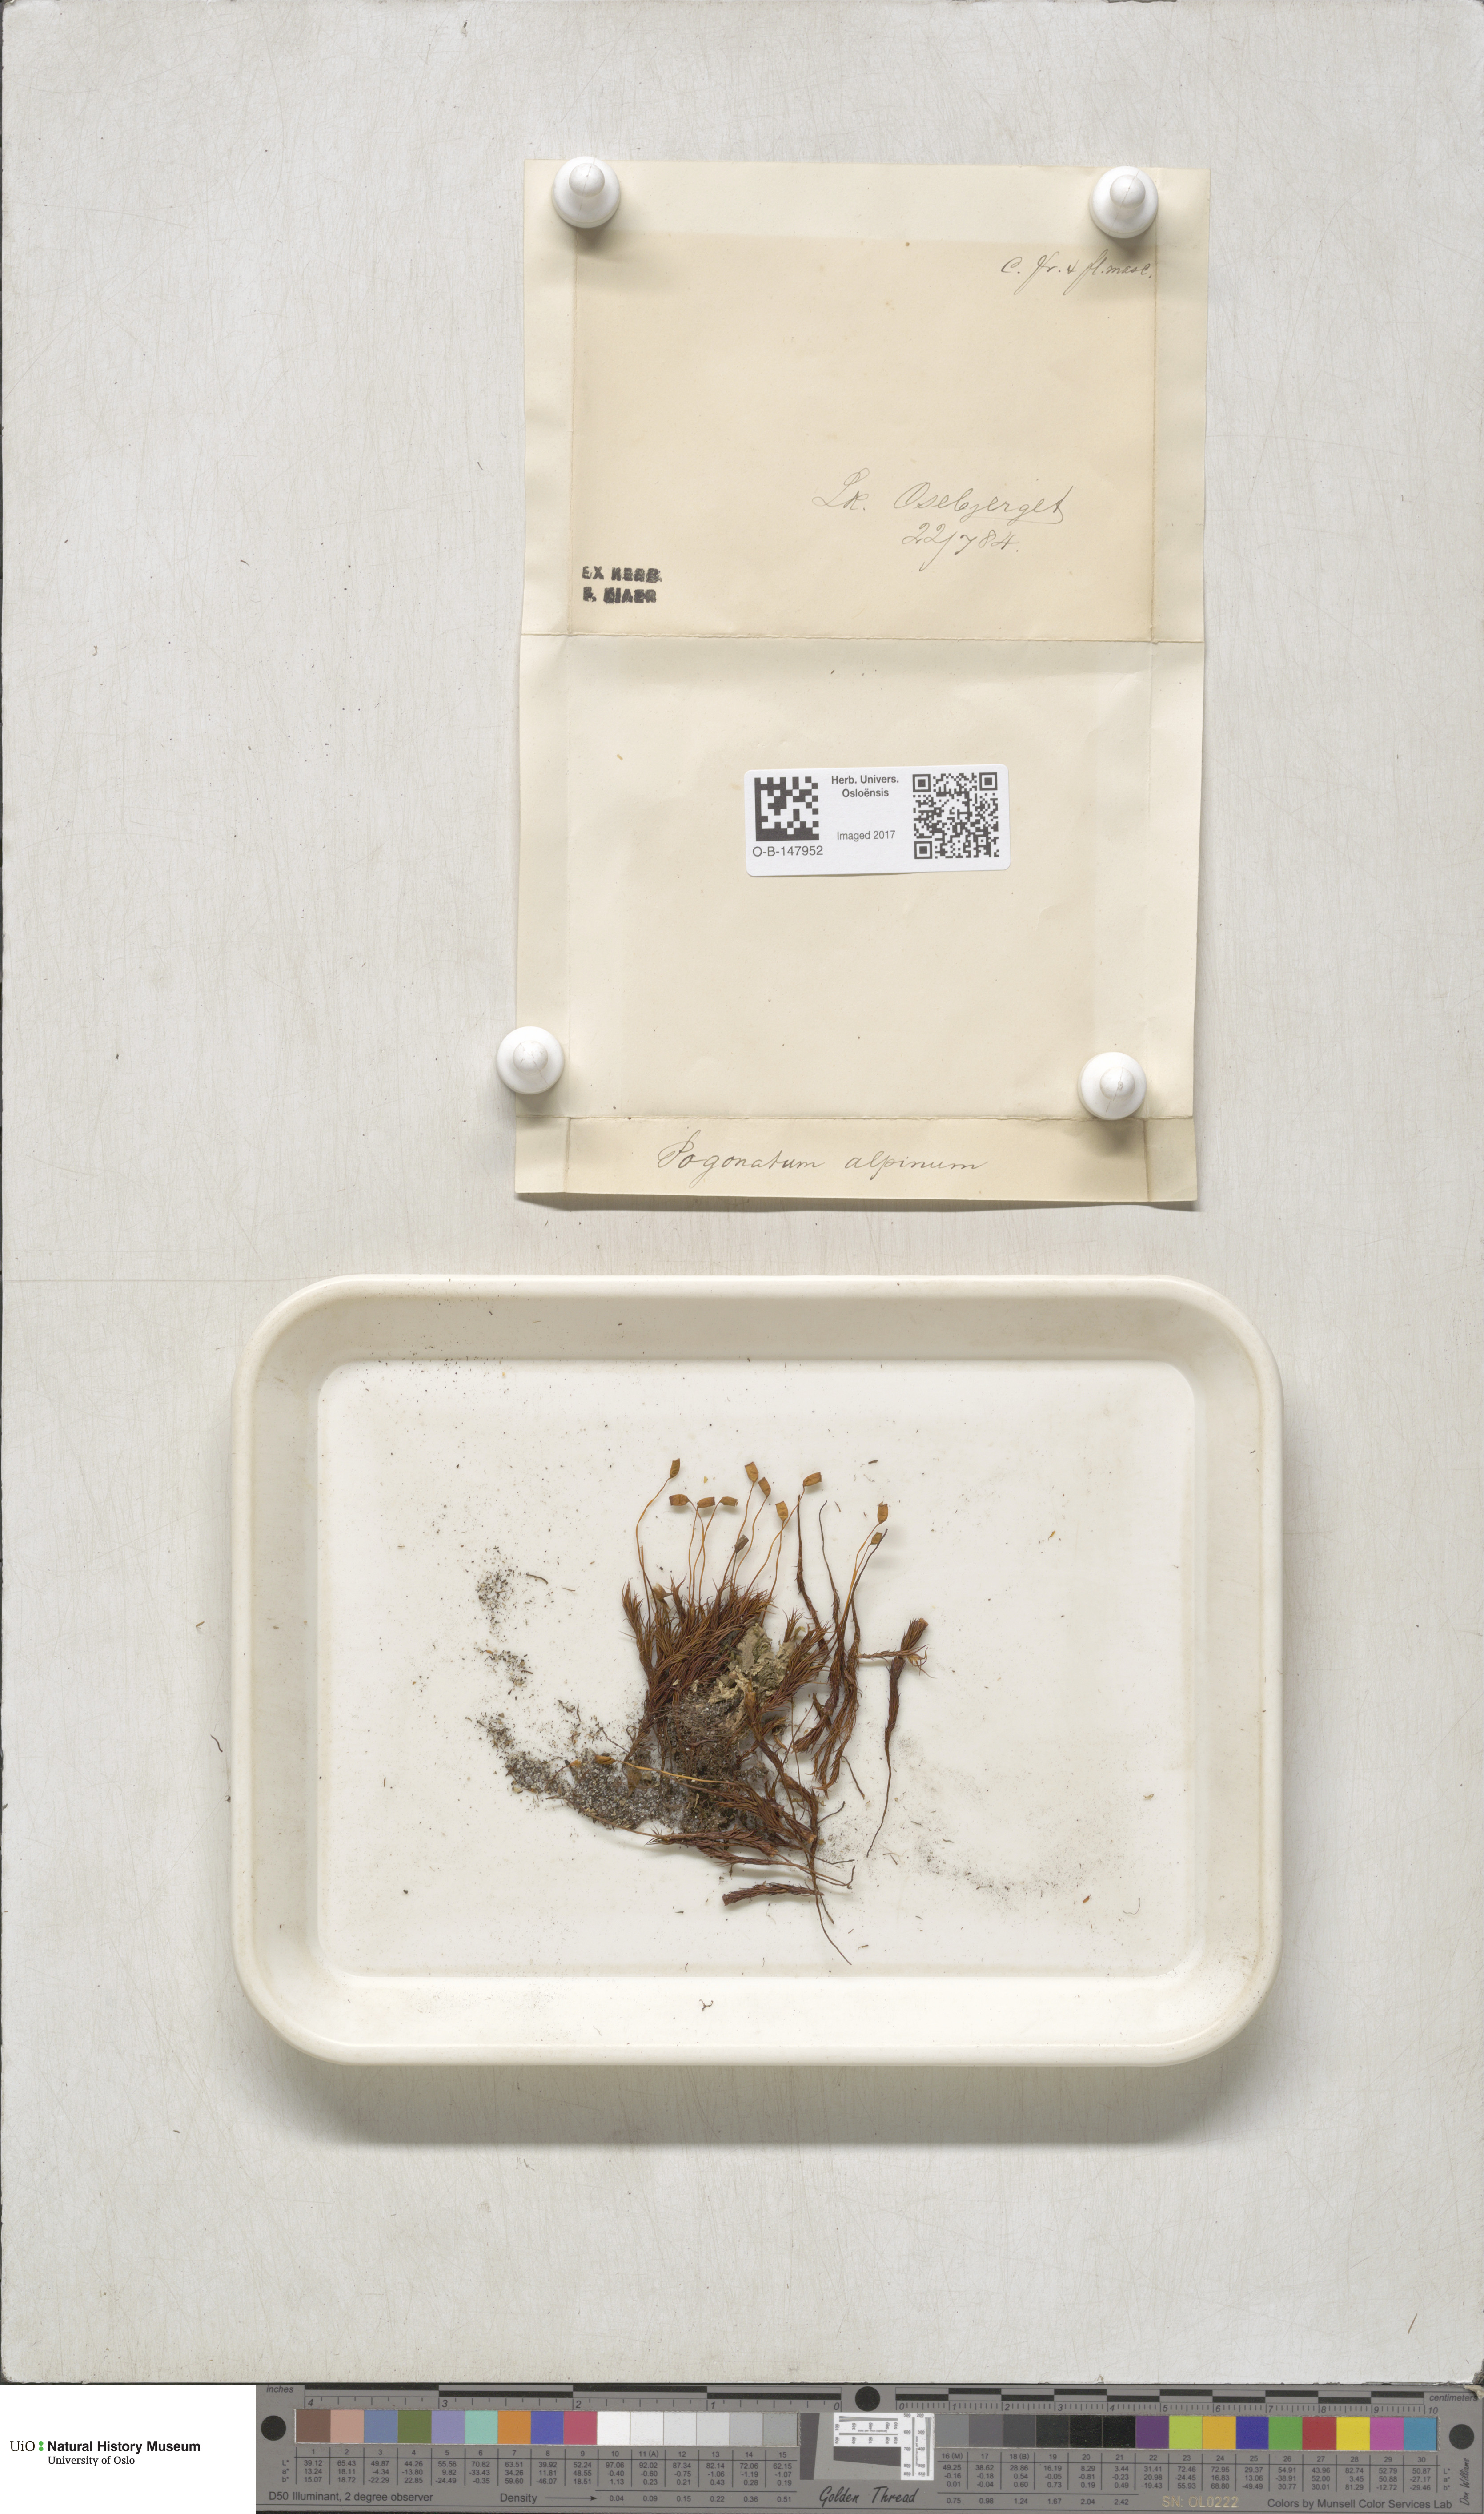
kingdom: Plantae
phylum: Bryophyta
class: Polytrichopsida
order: Polytrichales
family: Polytrichaceae
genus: Polytrichastrum
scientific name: Polytrichastrum alpinum
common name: Alpine haircap
